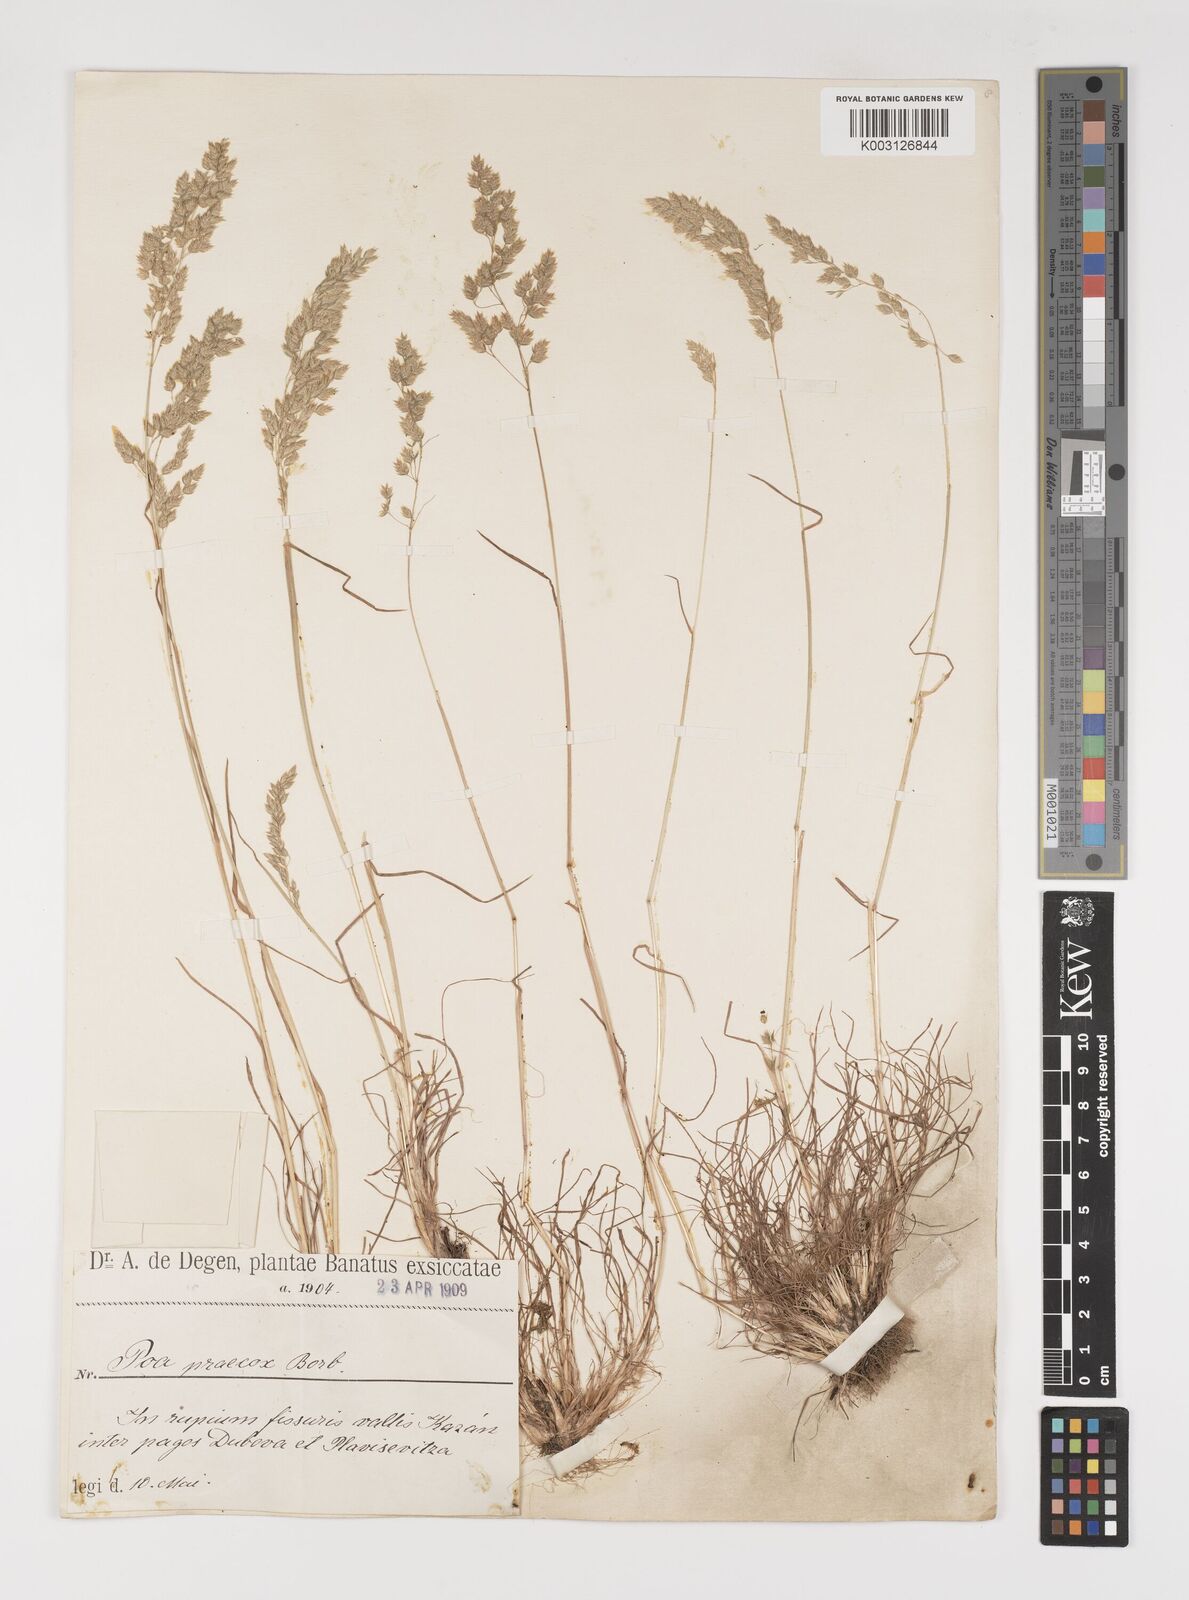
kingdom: Plantae
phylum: Tracheophyta
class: Liliopsida
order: Poales
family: Poaceae
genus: Poa
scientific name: Poa bulbosa
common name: Bulbous bluegrass
